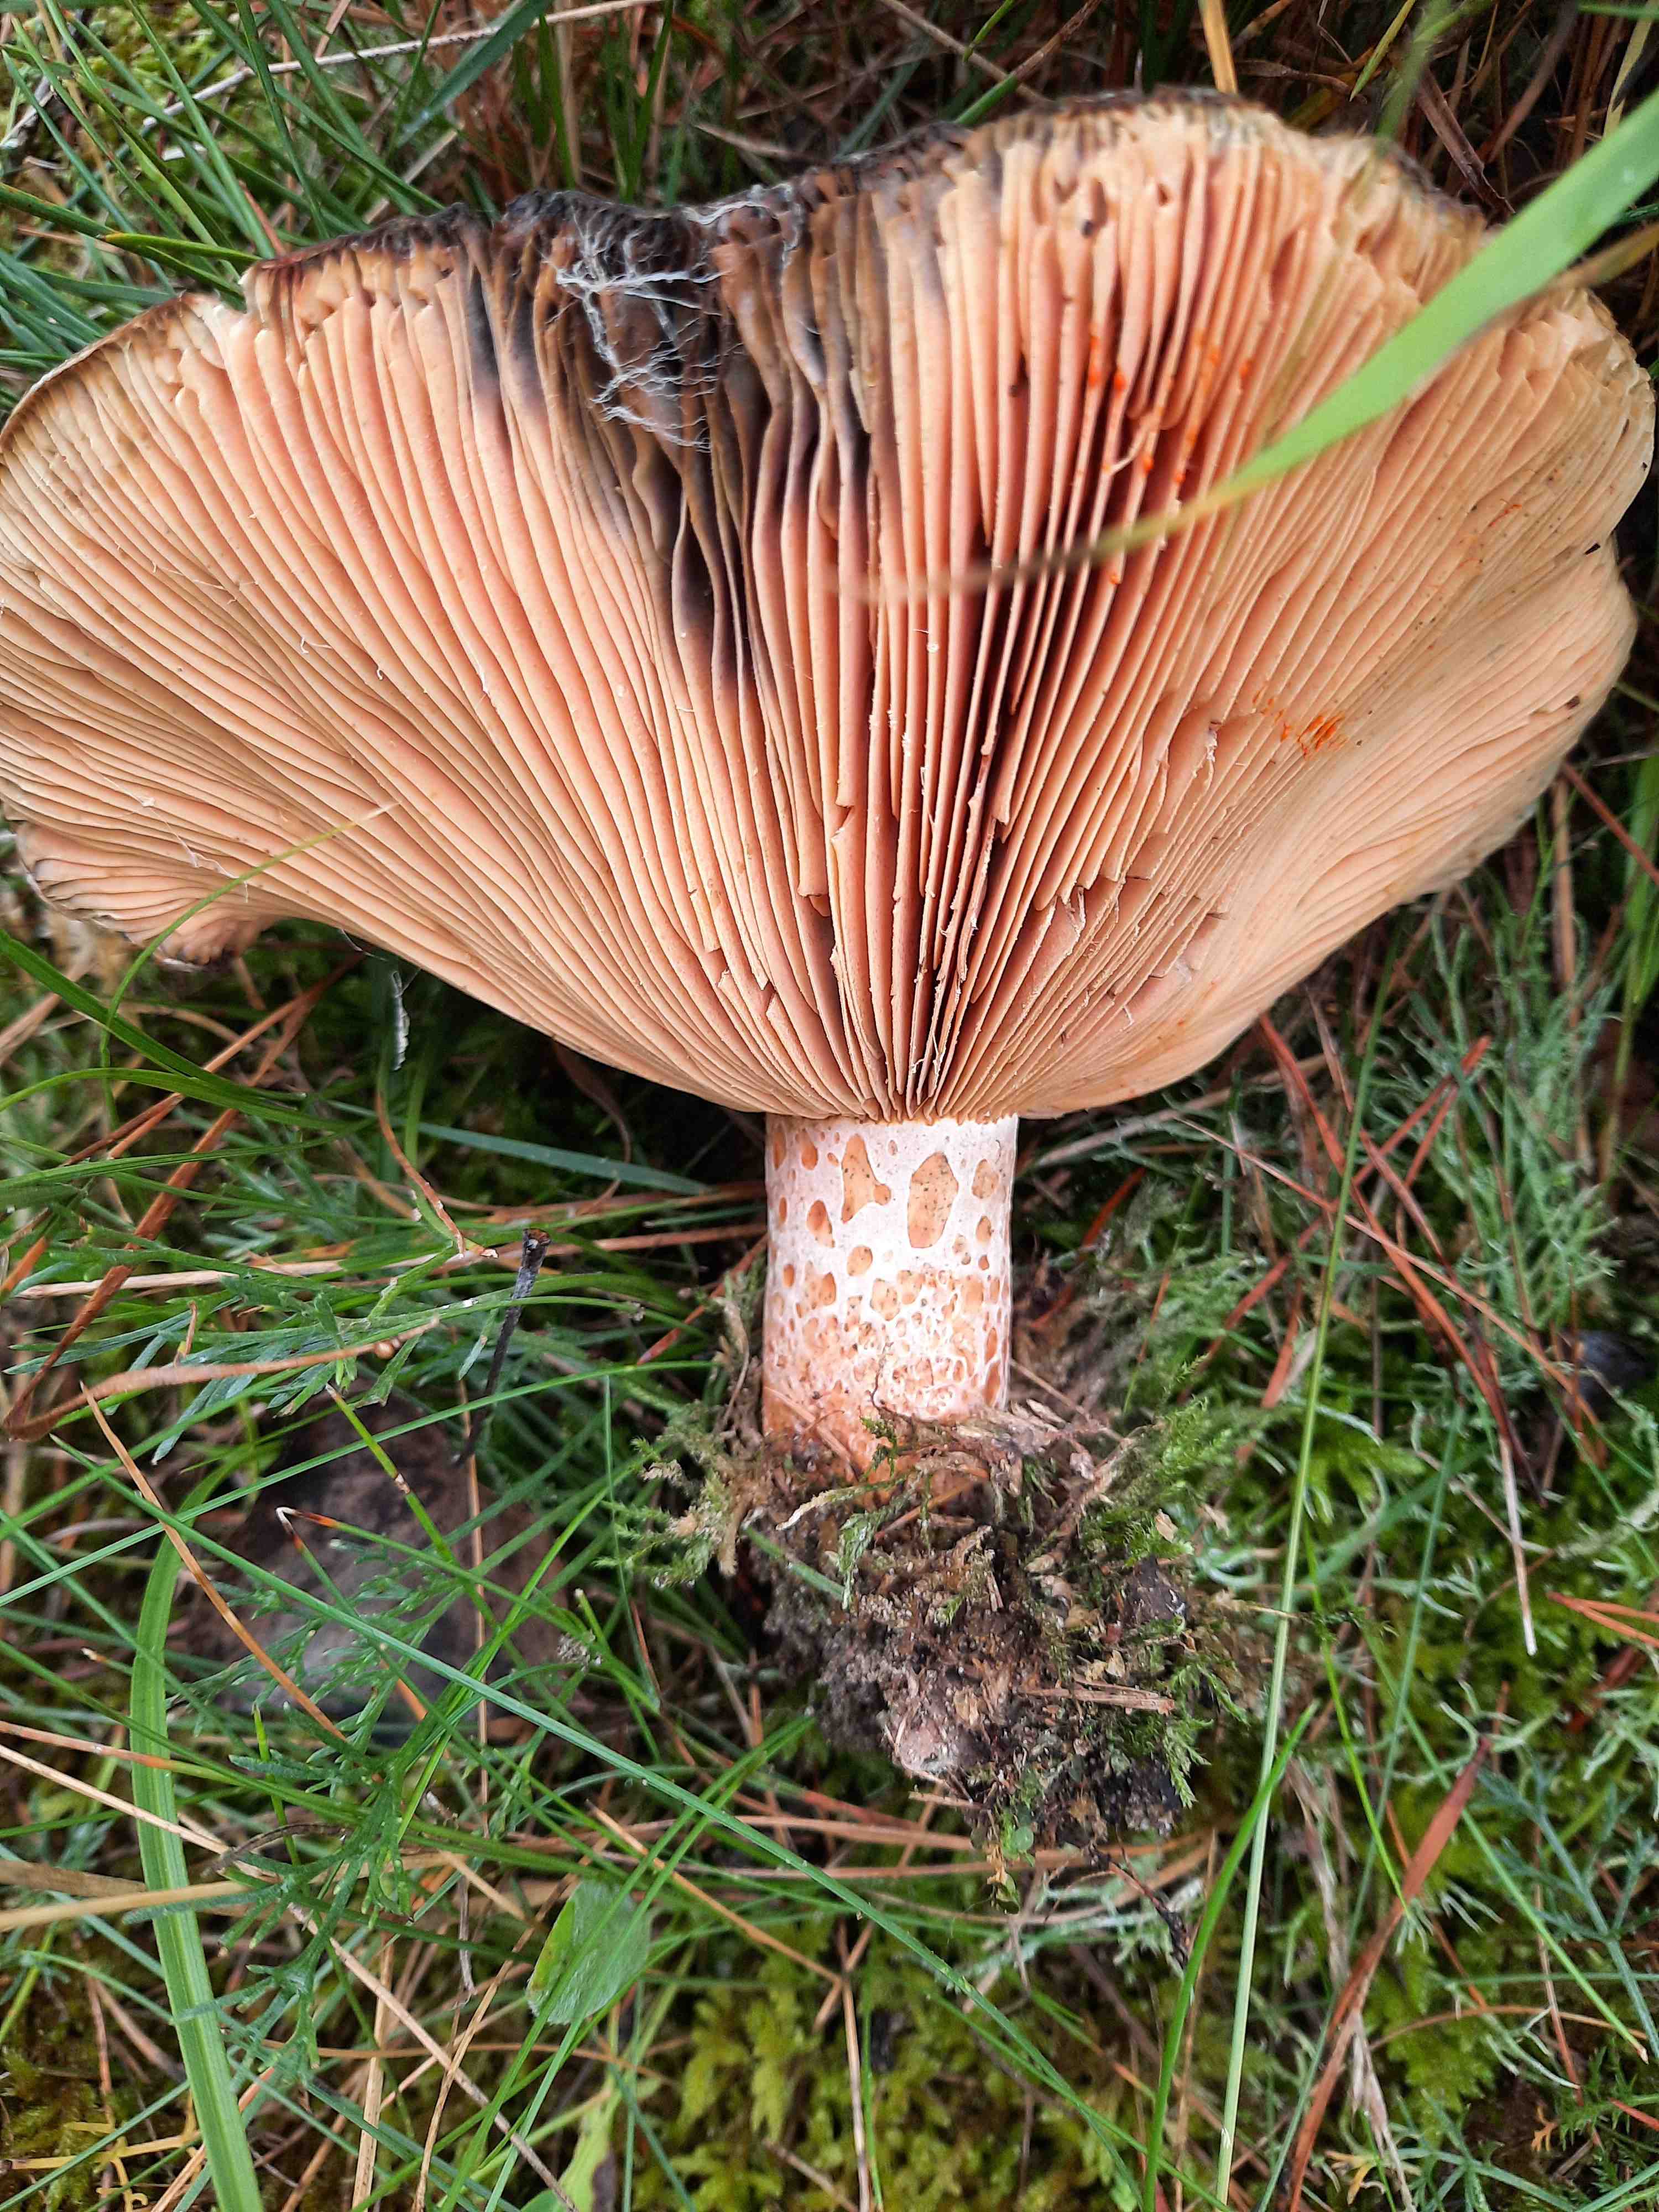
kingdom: Fungi
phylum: Basidiomycota
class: Agaricomycetes
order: Russulales
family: Russulaceae
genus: Lactarius
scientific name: Lactarius deliciosus
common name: velsmagende mælkehat
